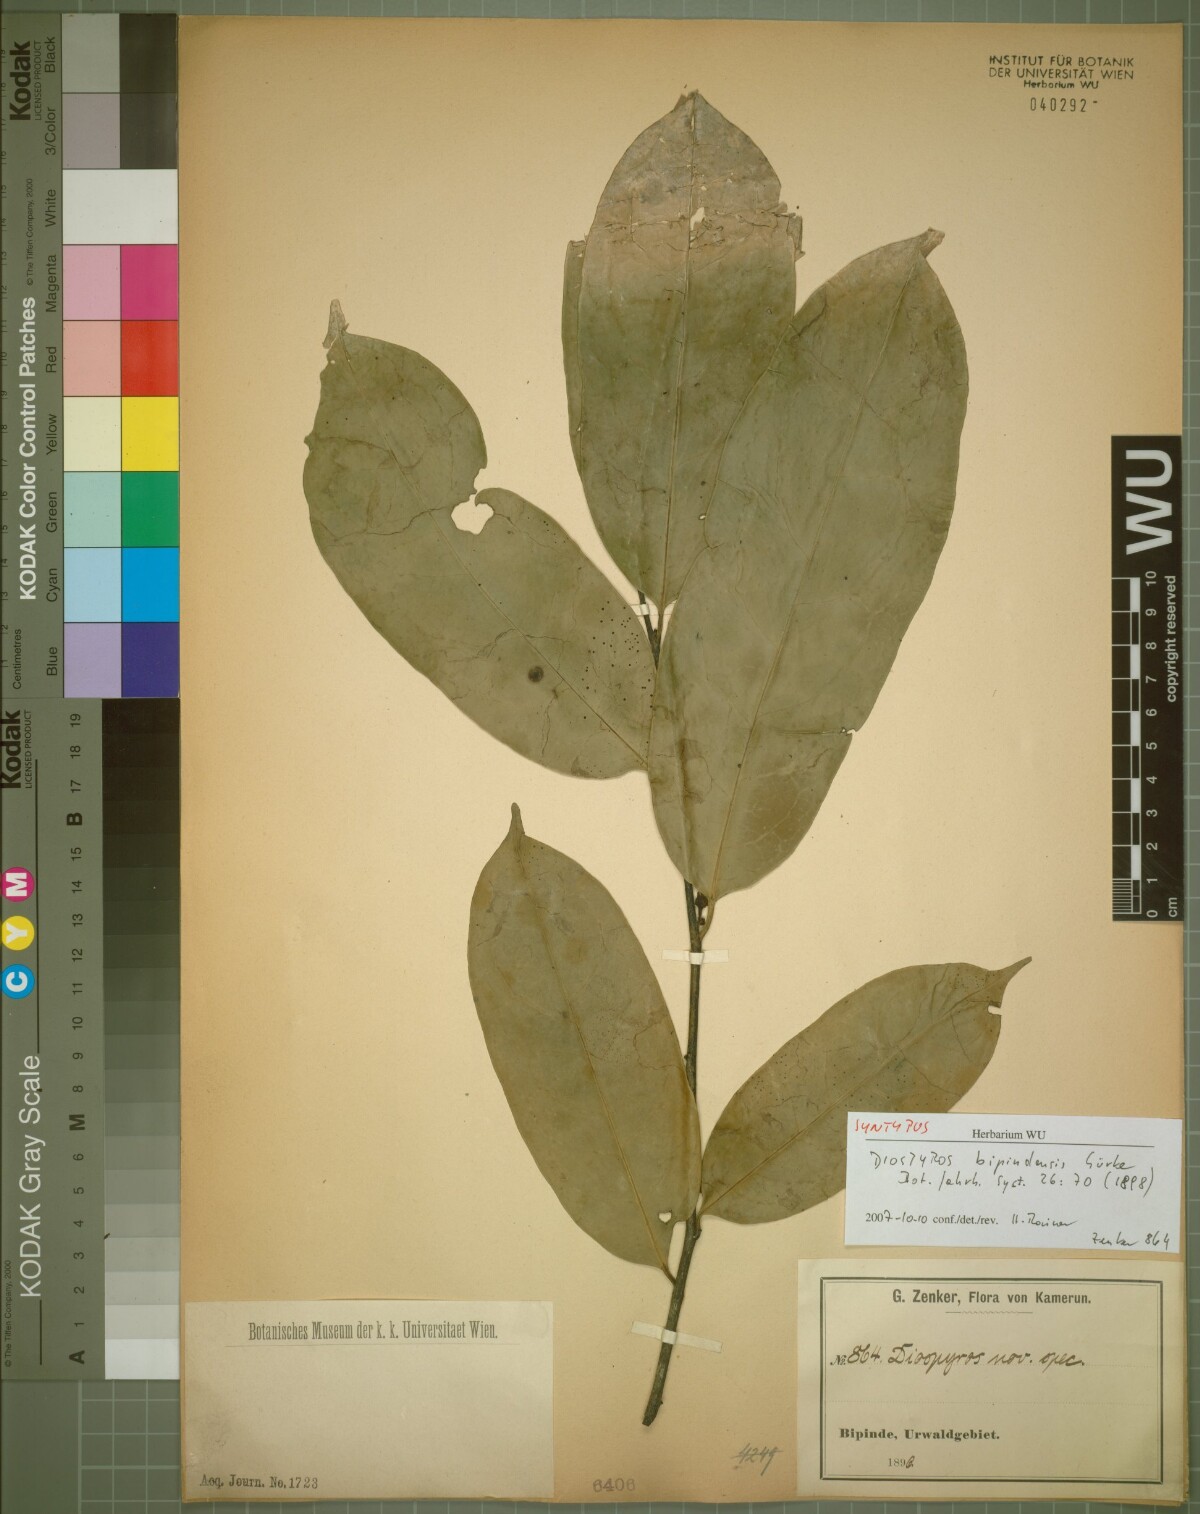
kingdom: Plantae
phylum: Tracheophyta
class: Magnoliopsida
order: Ericales
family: Ebenaceae
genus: Diospyros
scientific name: Diospyros bipindensis
